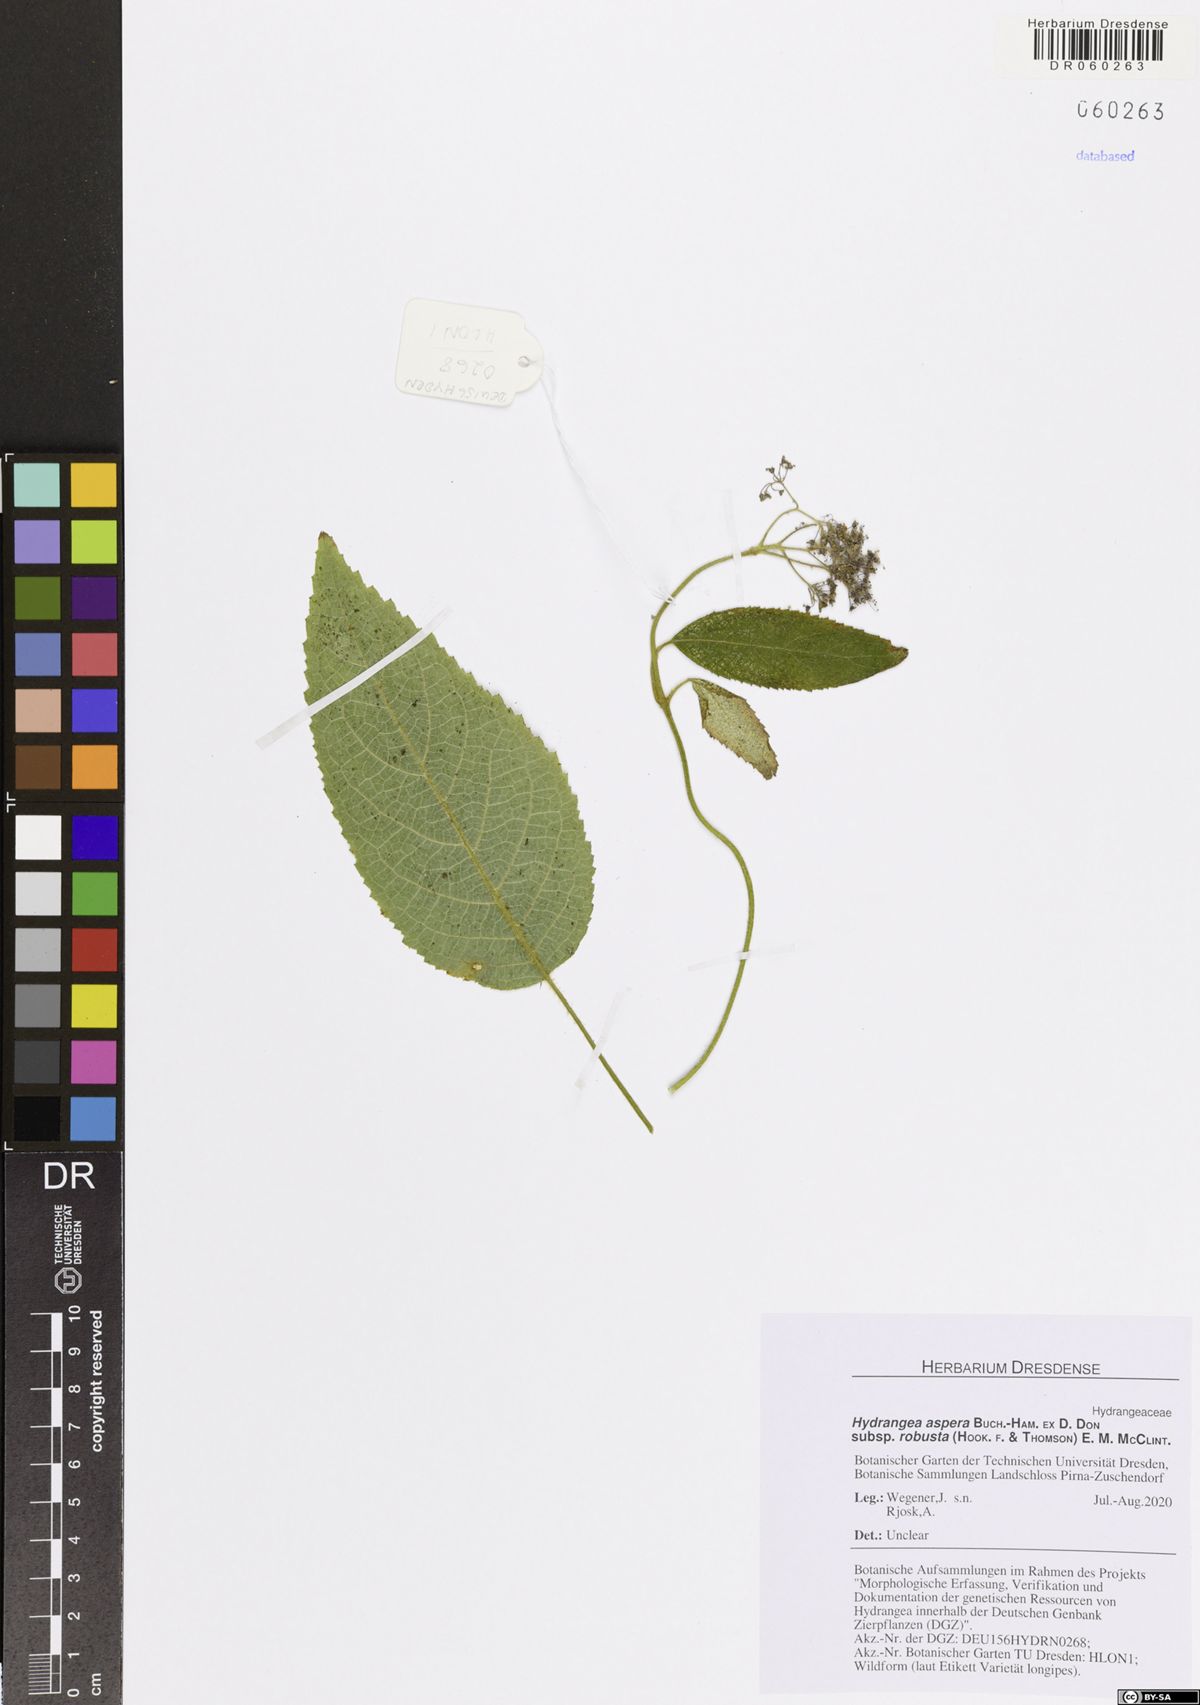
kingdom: Plantae
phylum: Tracheophyta
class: Magnoliopsida
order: Cornales
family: Hydrangeaceae
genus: Hydrangea
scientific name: Hydrangea aspera
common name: Rough-leaf hydrangea
